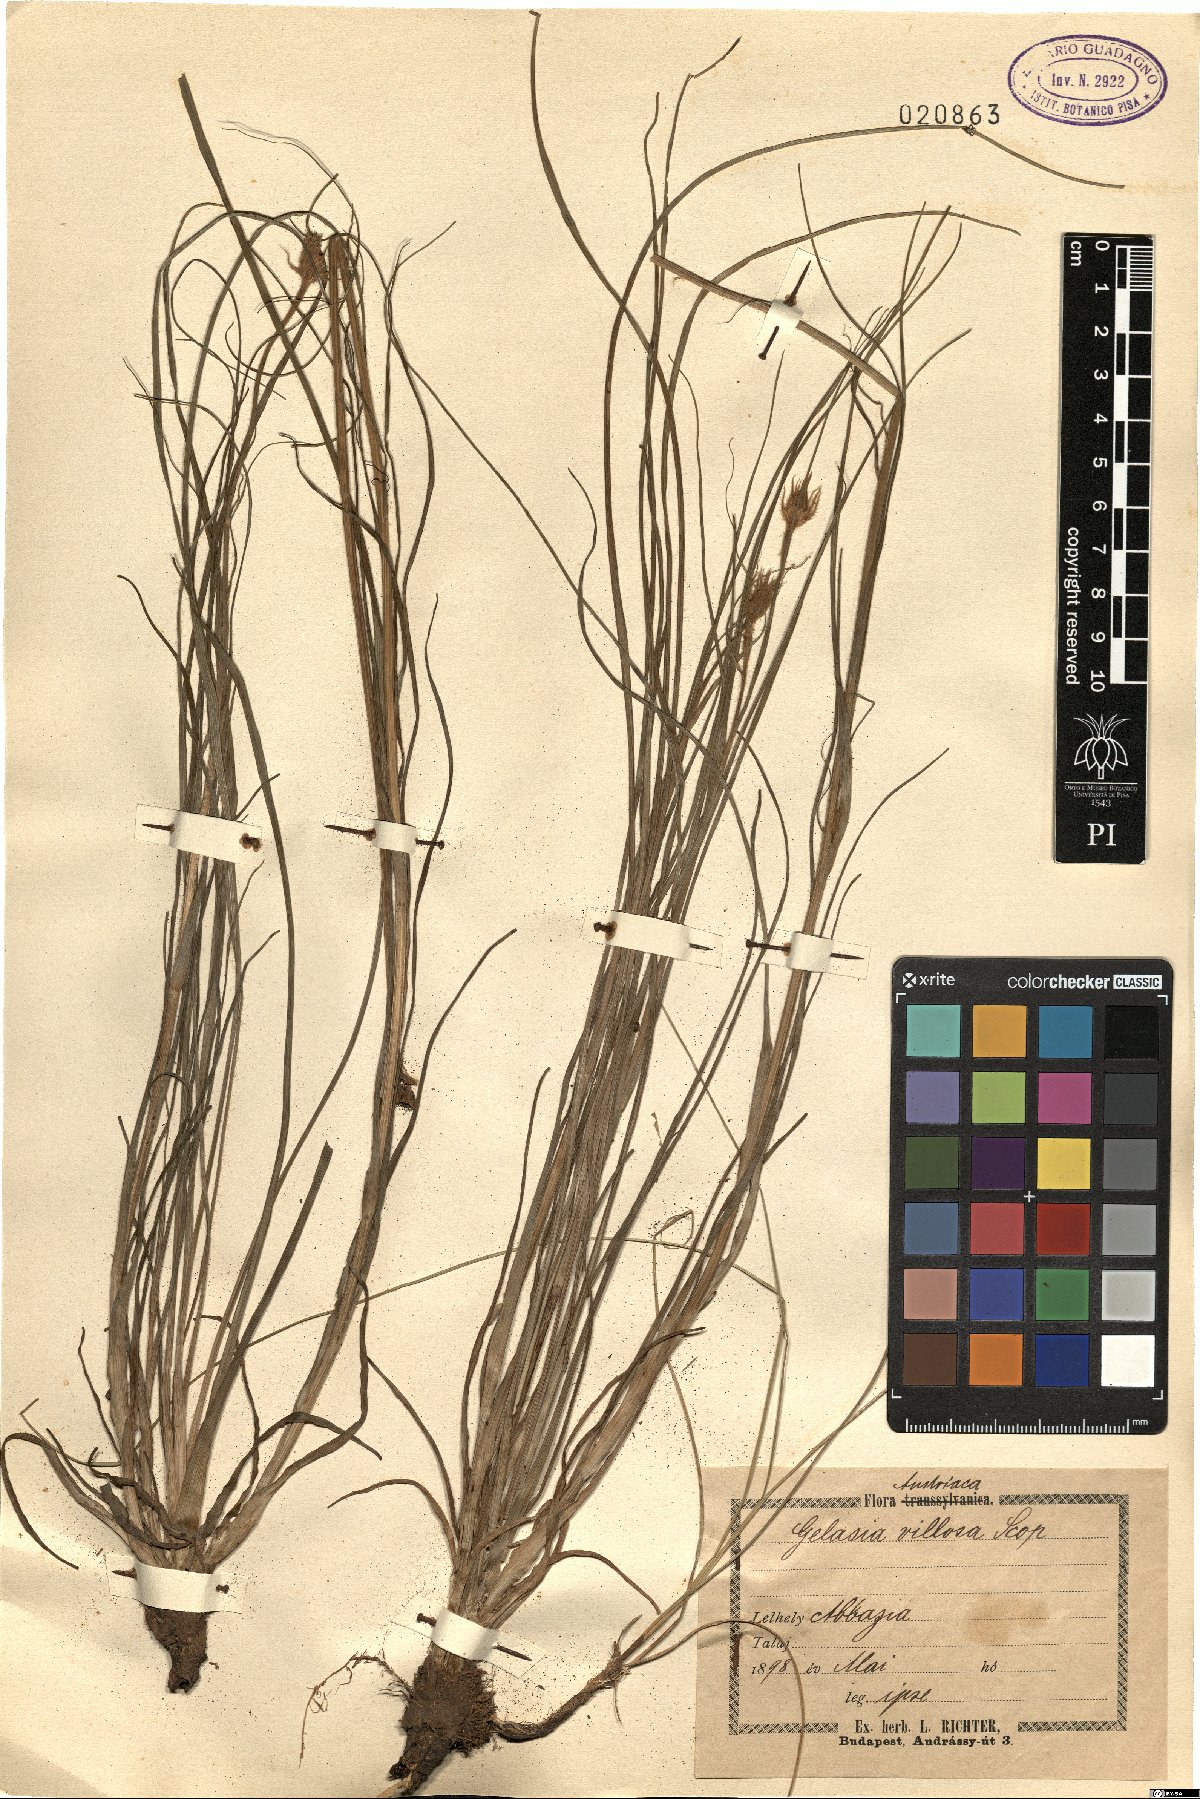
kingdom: Plantae
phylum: Tracheophyta
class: Magnoliopsida
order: Asterales
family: Asteraceae
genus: Gelasia
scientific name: Gelasia villosa
